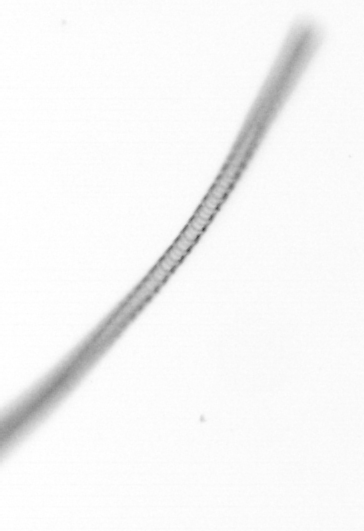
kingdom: Chromista
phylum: Ochrophyta
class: Bacillariophyceae
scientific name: Bacillariophyceae
